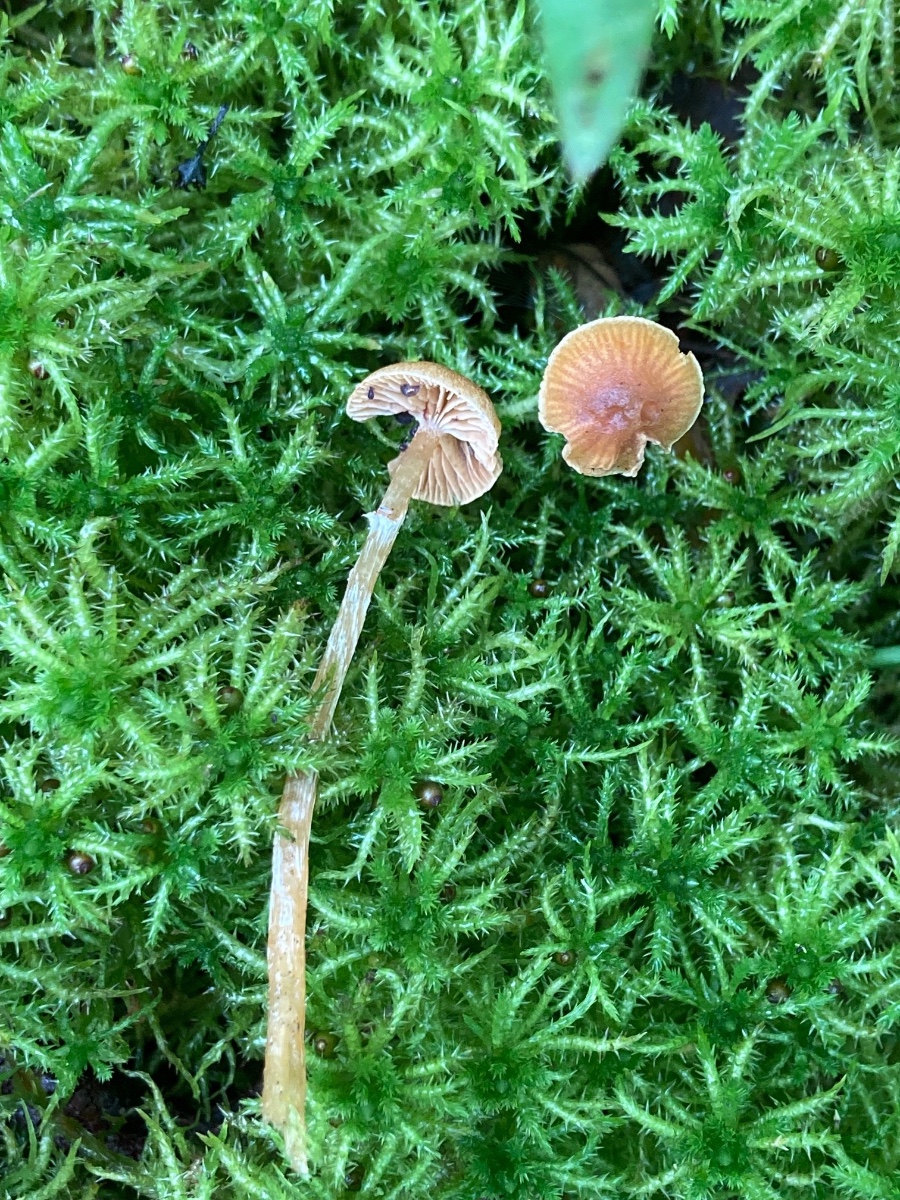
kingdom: Fungi
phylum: Basidiomycota
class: Agaricomycetes
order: Agaricales
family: Hymenogastraceae
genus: Galerina
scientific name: Galerina paludosa
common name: mose-hjelmhat
